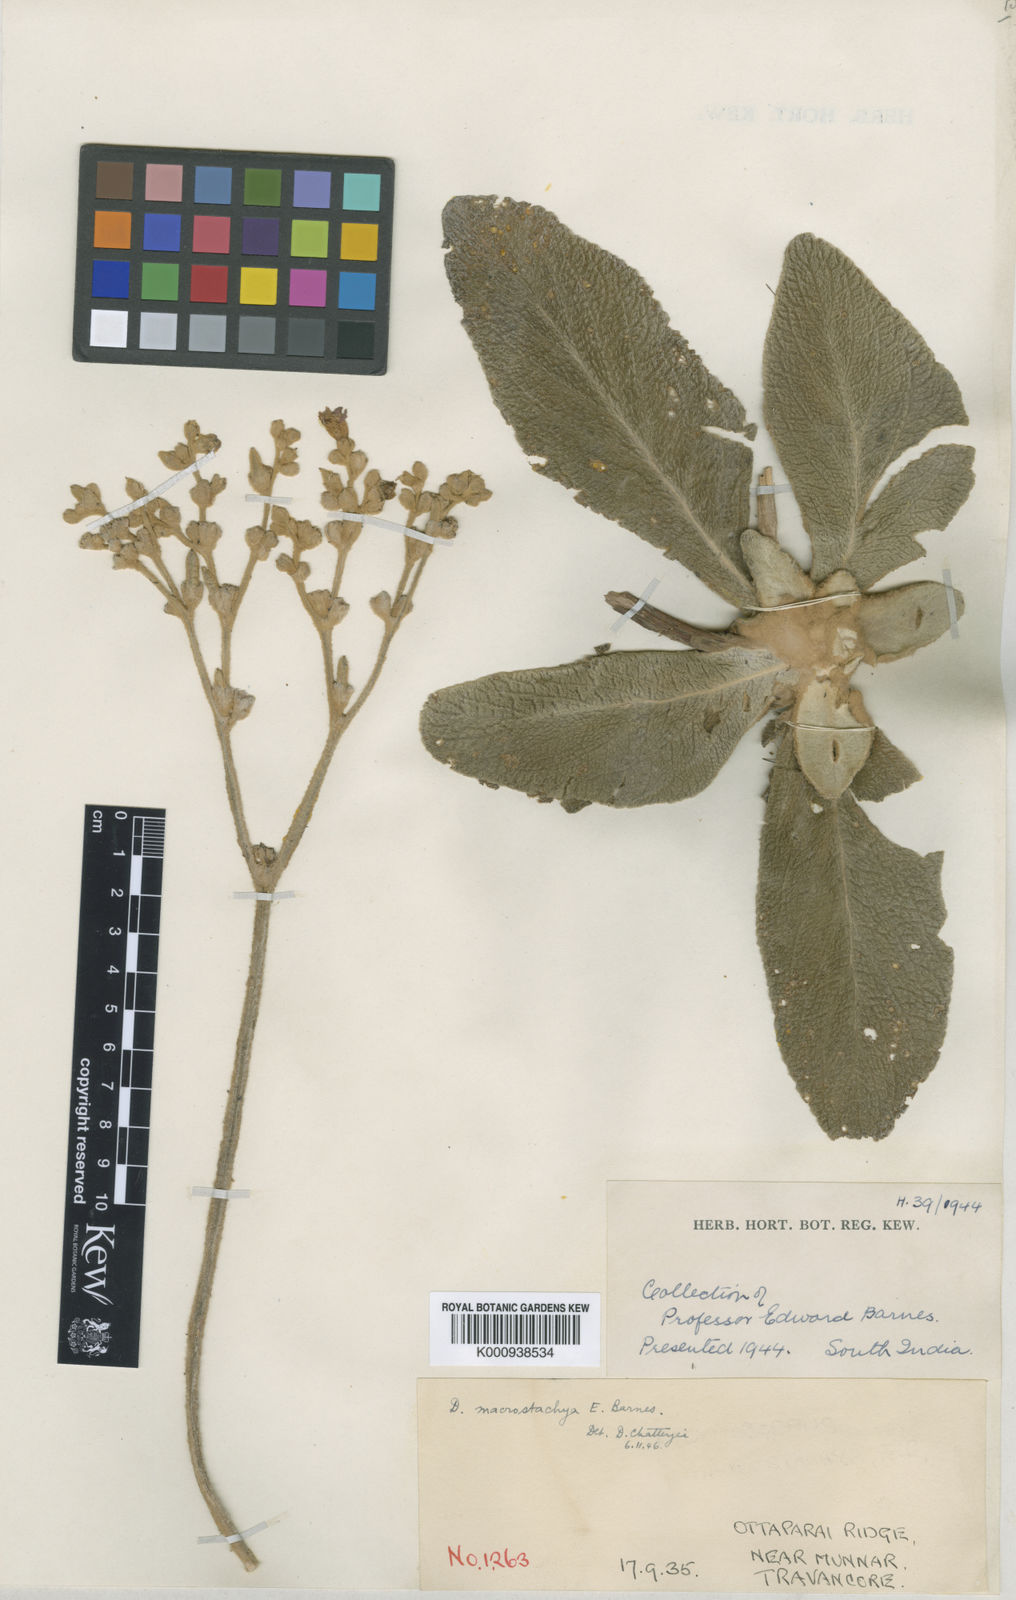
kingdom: Plantae
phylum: Tracheophyta
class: Magnoliopsida
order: Lamiales
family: Gesneriaceae
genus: Henckelia
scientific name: Henckelia macrostachya
